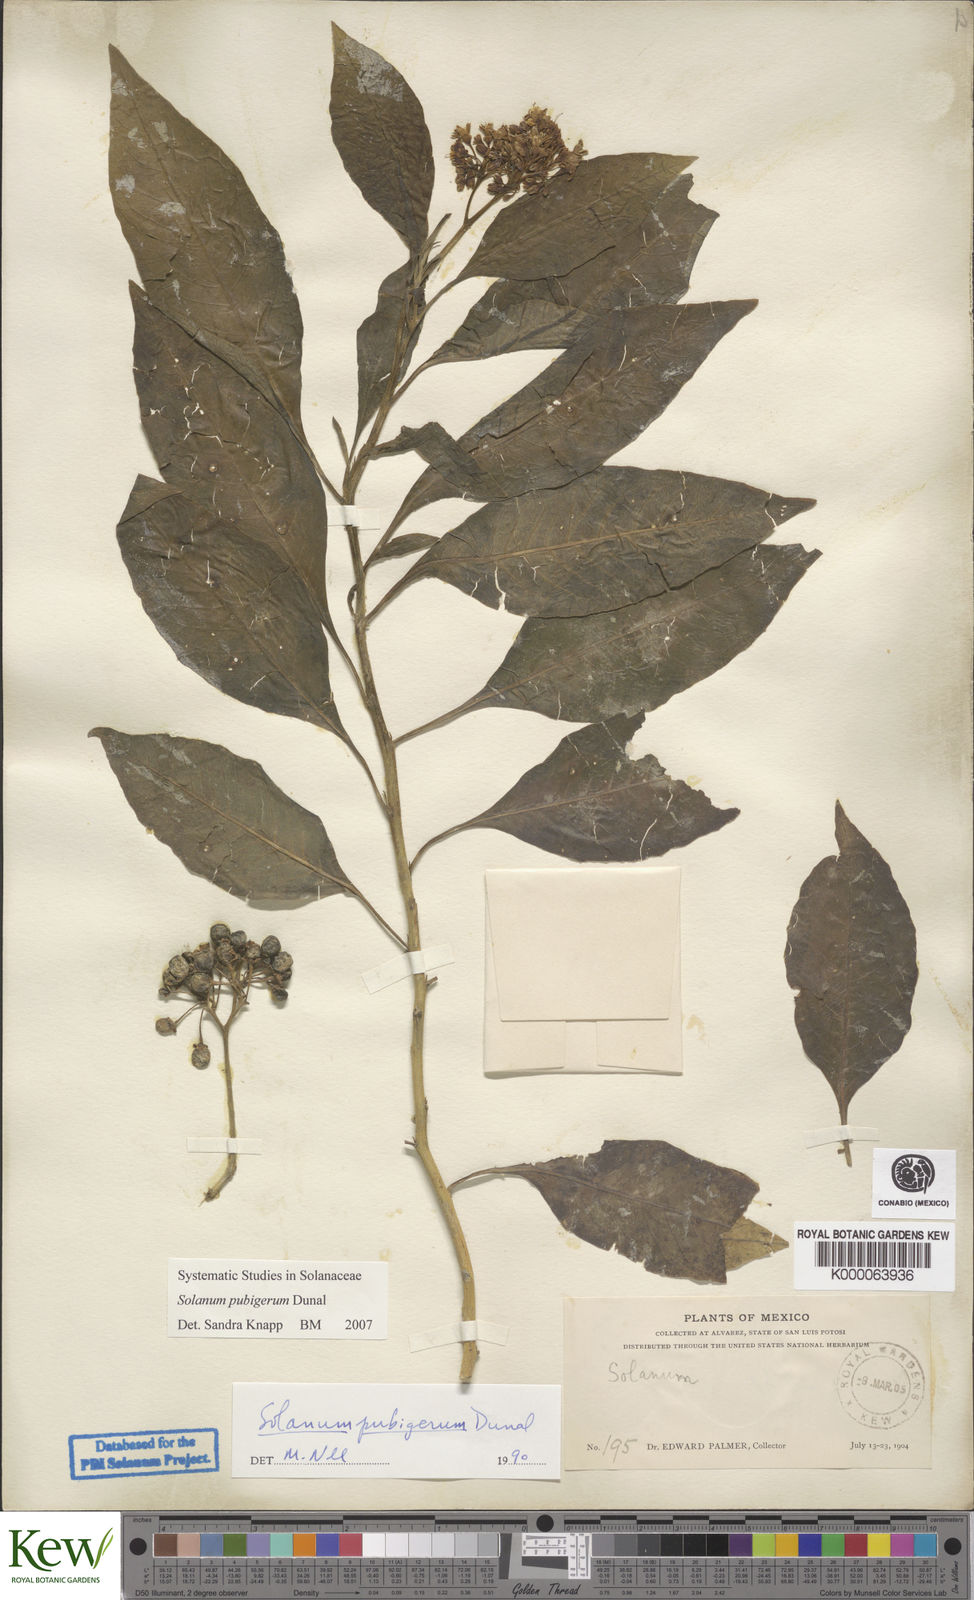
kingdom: Plantae
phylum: Tracheophyta
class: Magnoliopsida
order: Solanales
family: Solanaceae
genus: Solanum
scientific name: Solanum pubigerum
